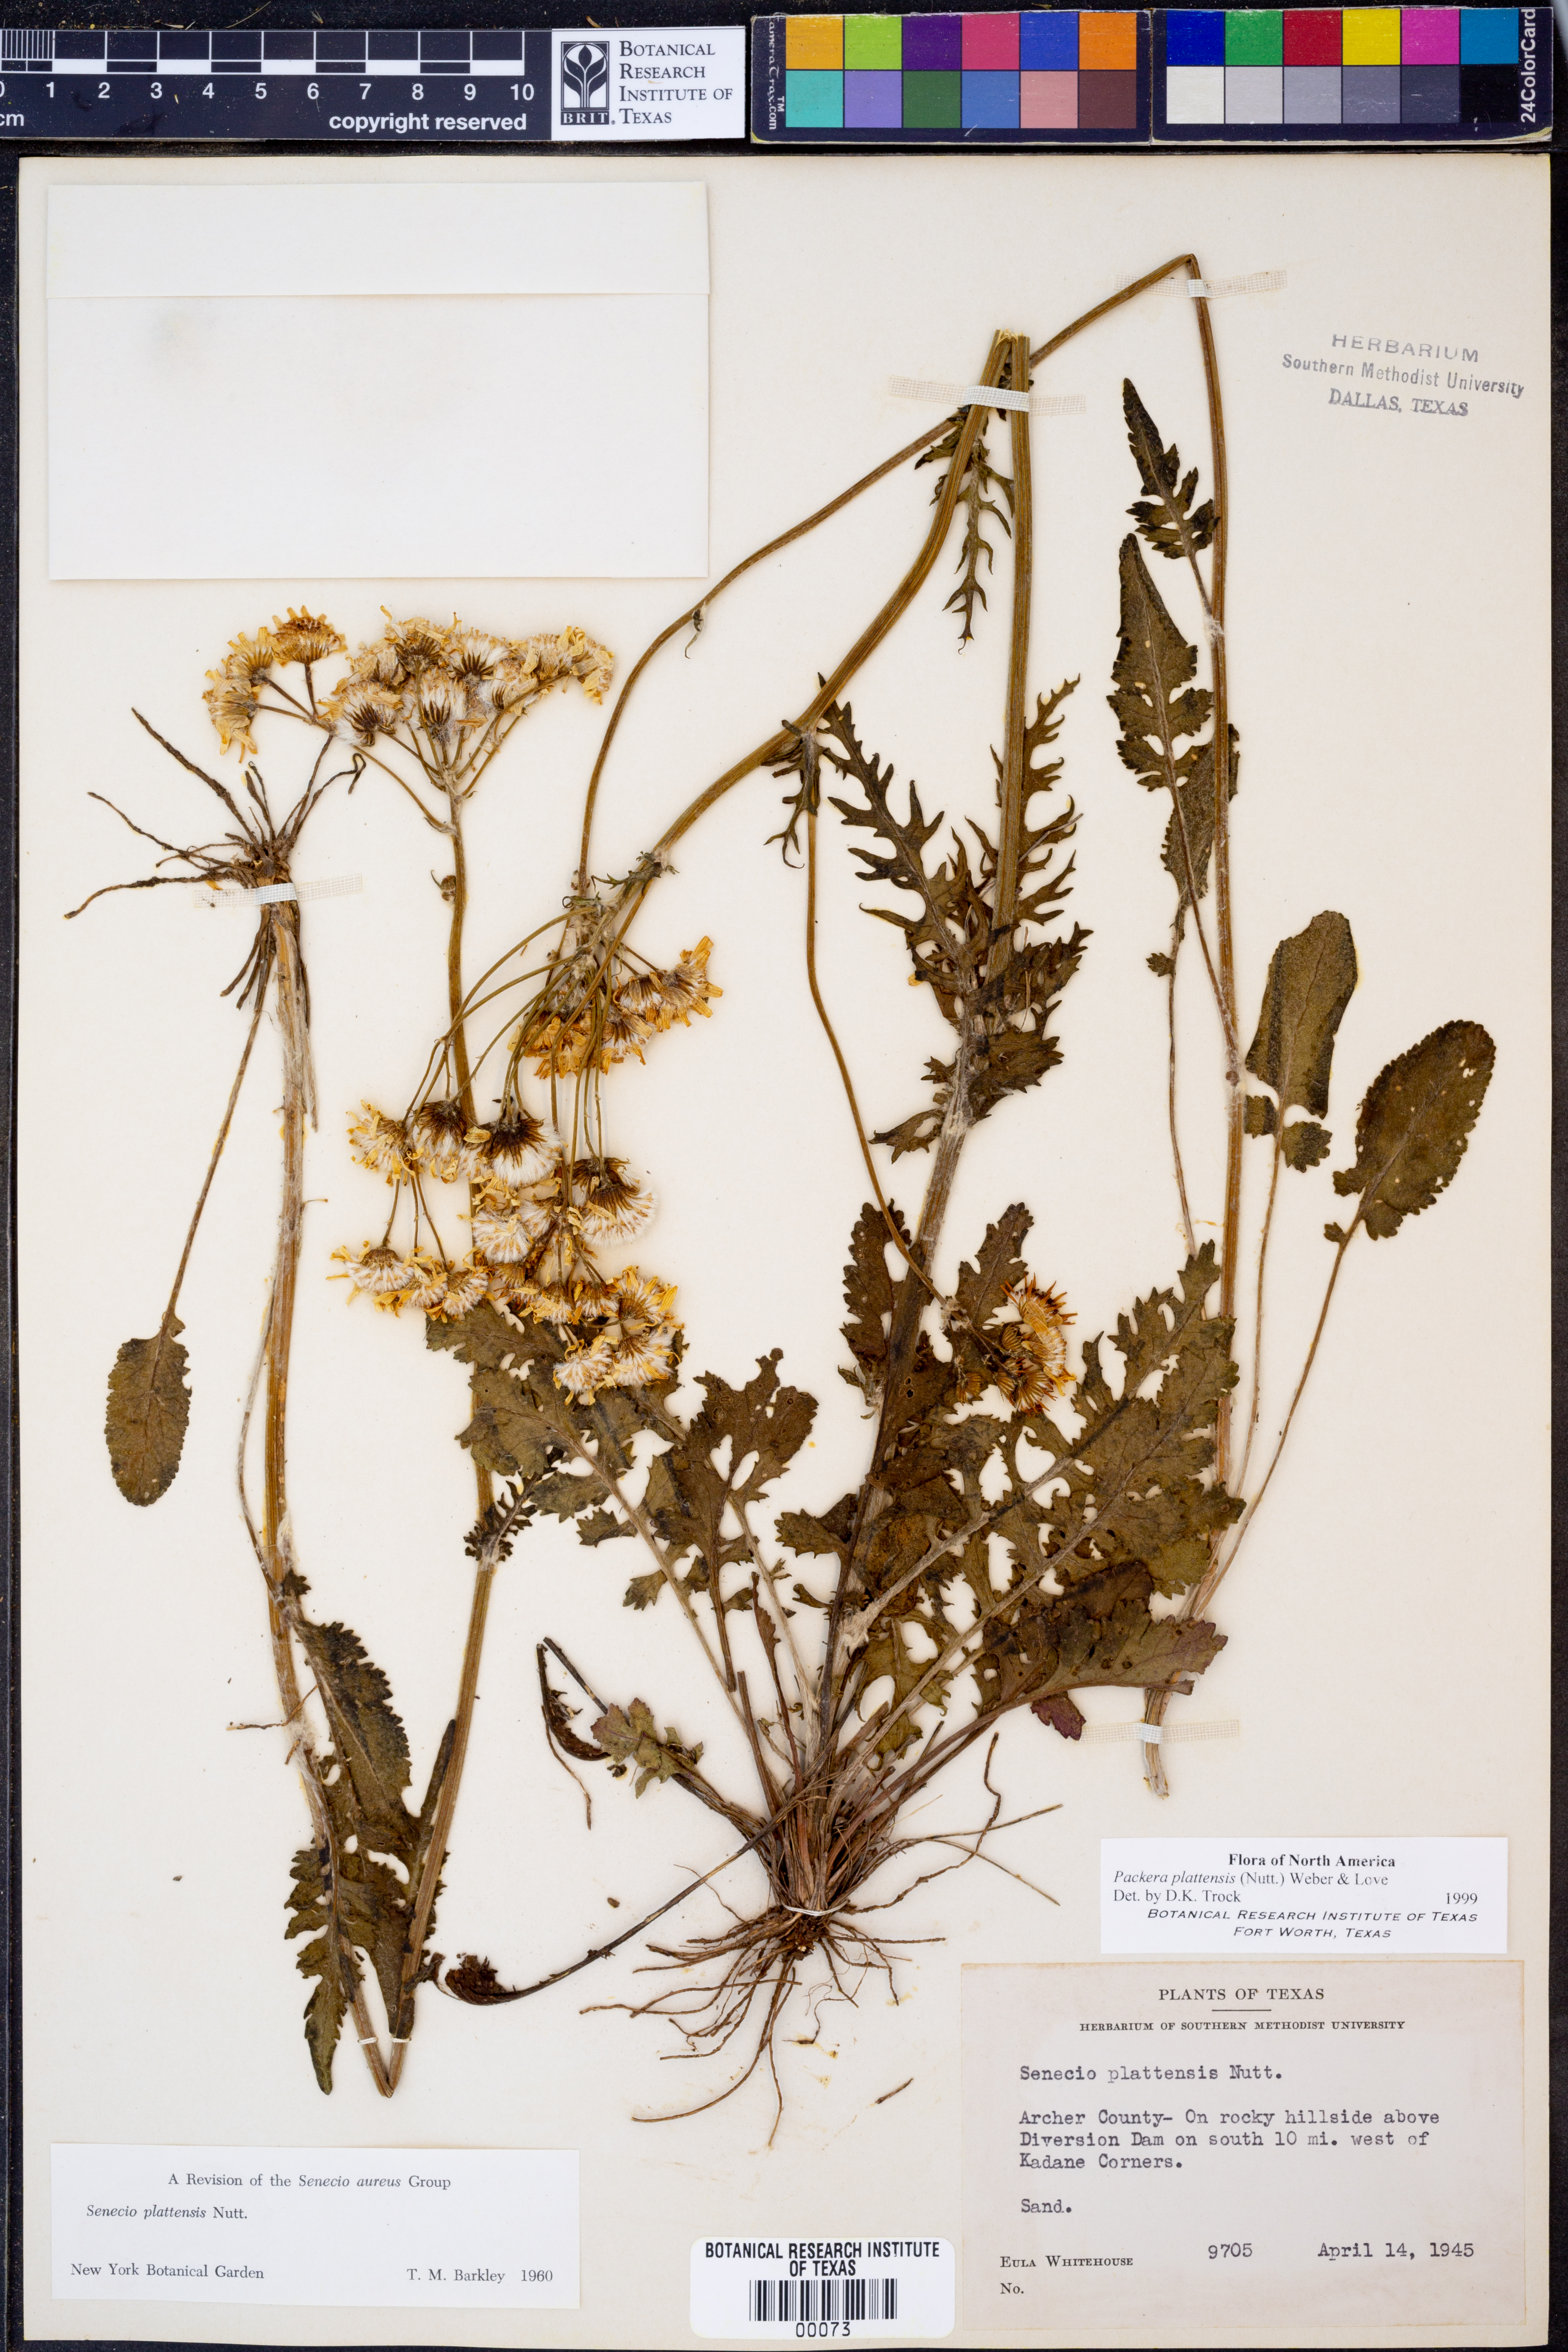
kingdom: Plantae
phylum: Tracheophyta
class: Magnoliopsida
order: Asterales
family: Asteraceae
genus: Packera
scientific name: Packera plattensis
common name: Prairie groundsel
